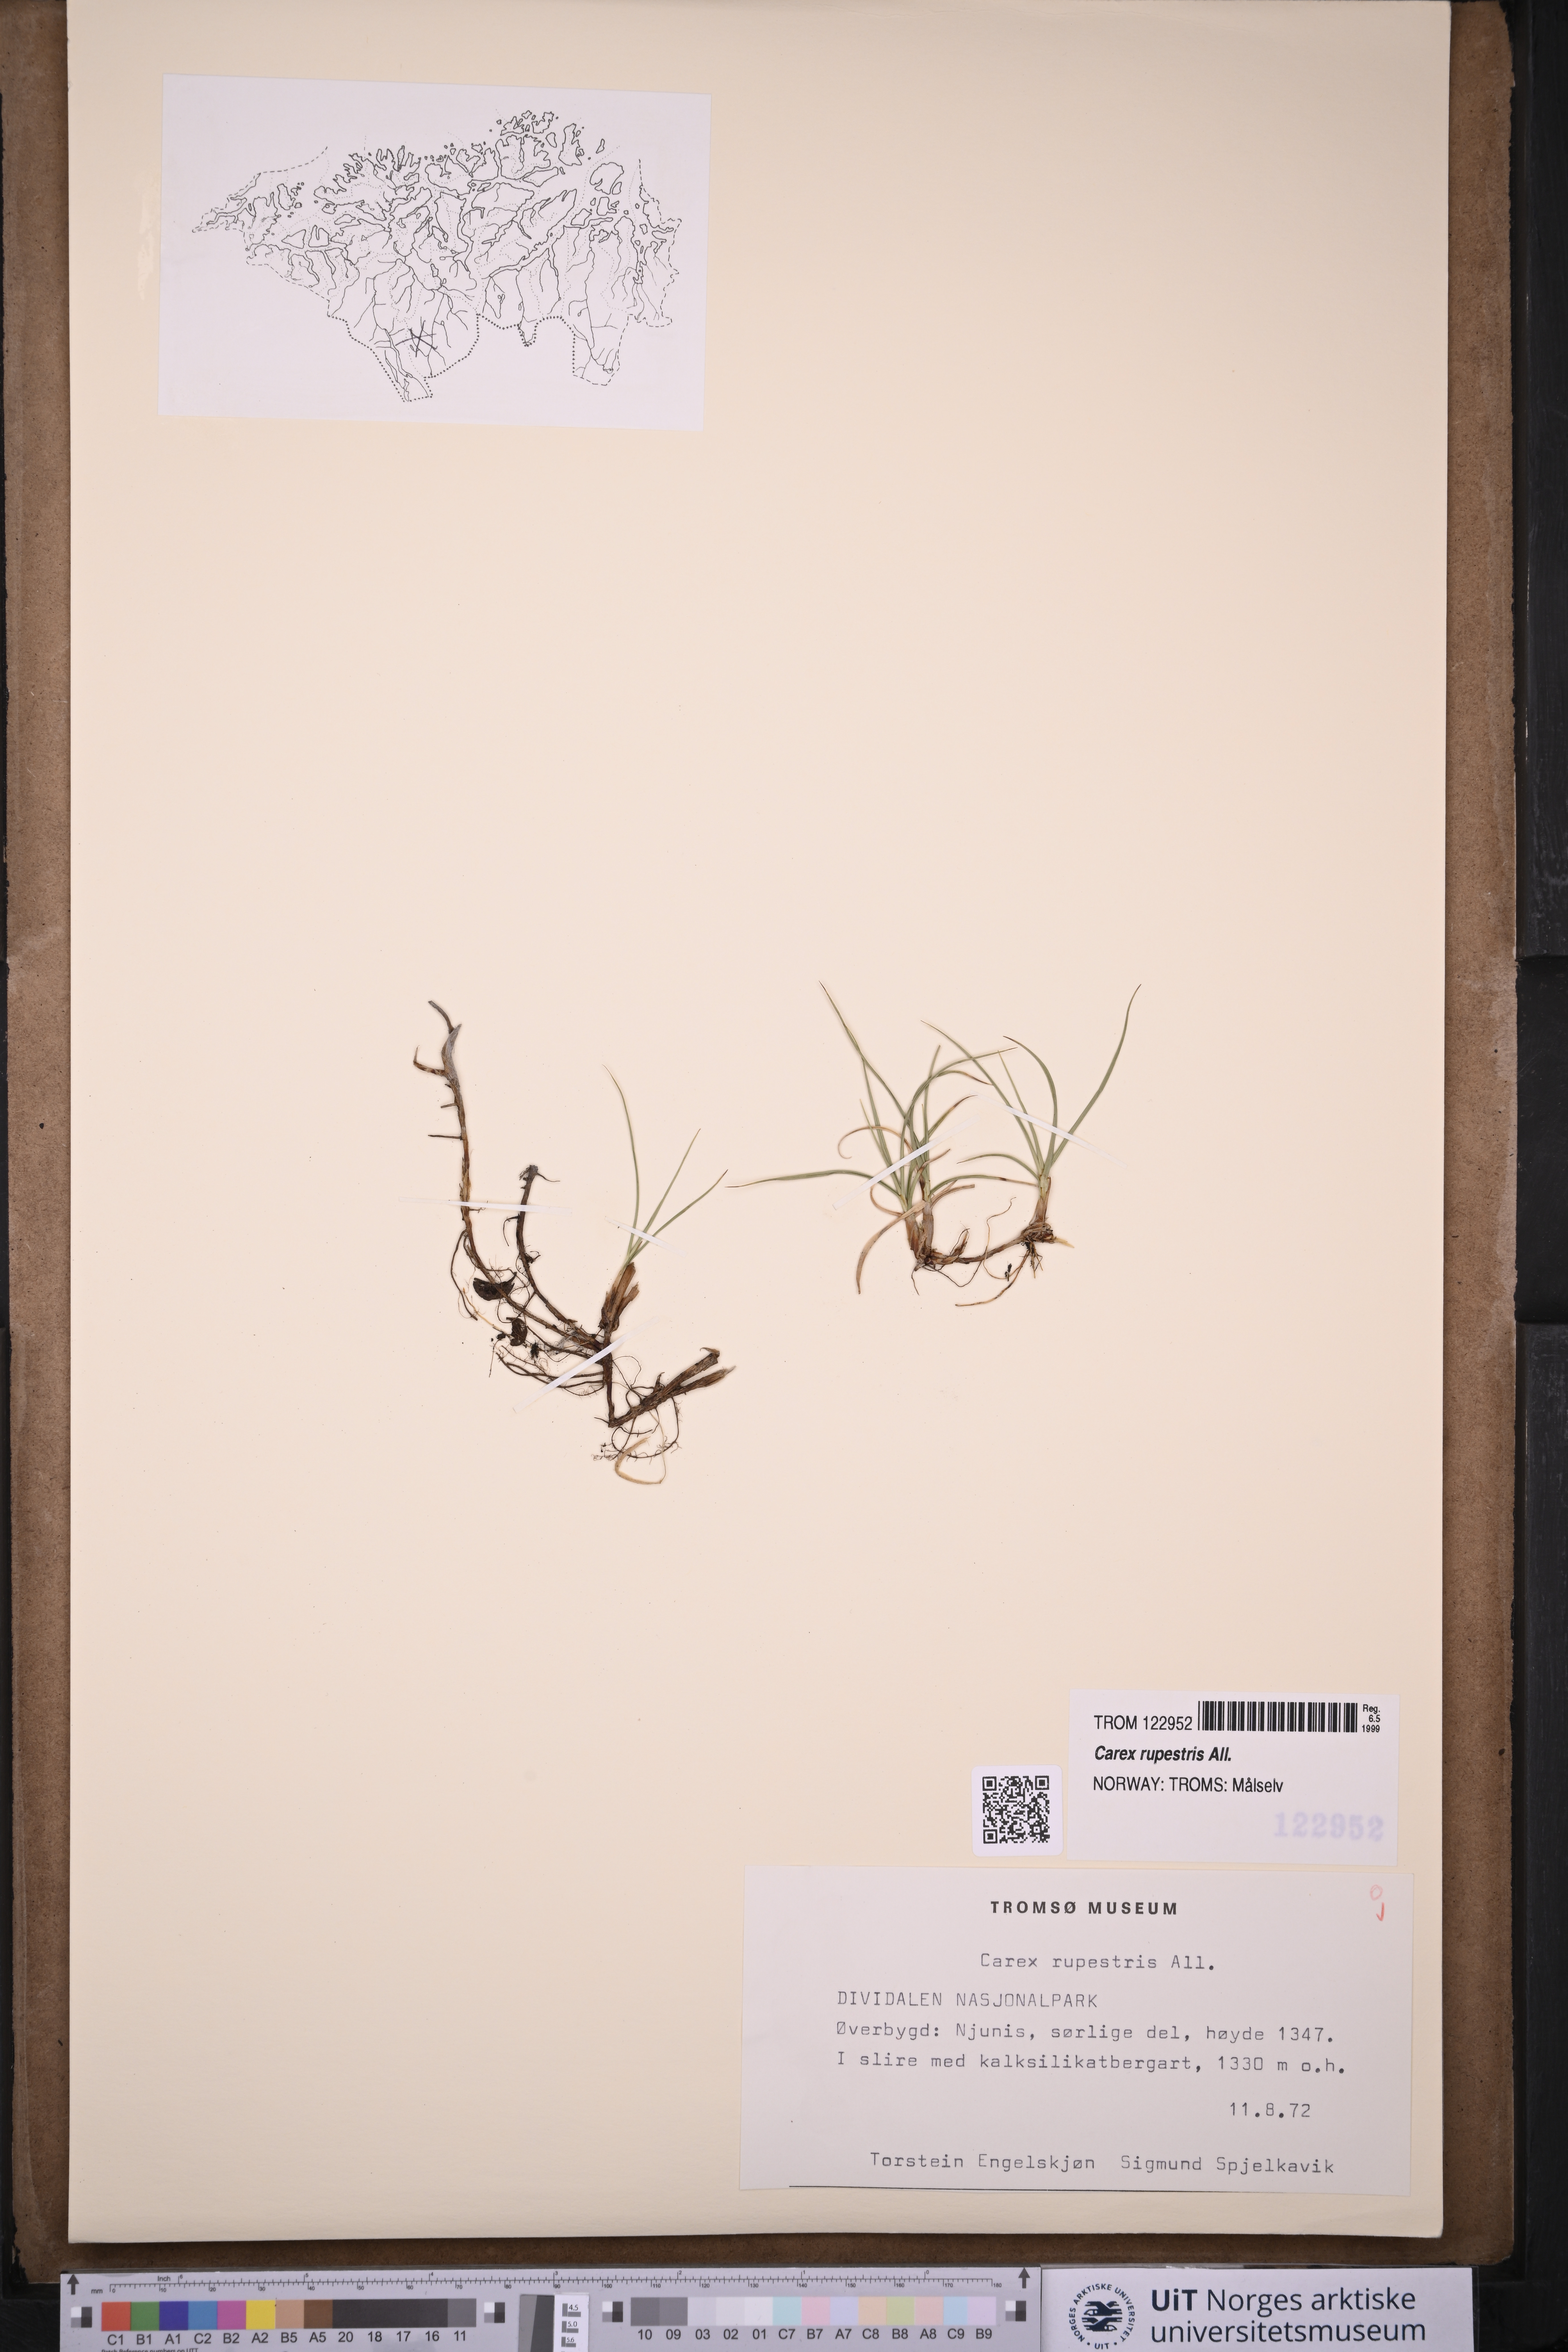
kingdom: Plantae
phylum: Tracheophyta
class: Liliopsida
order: Poales
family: Cyperaceae
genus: Carex
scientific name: Carex rupestris
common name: Rock sedge
